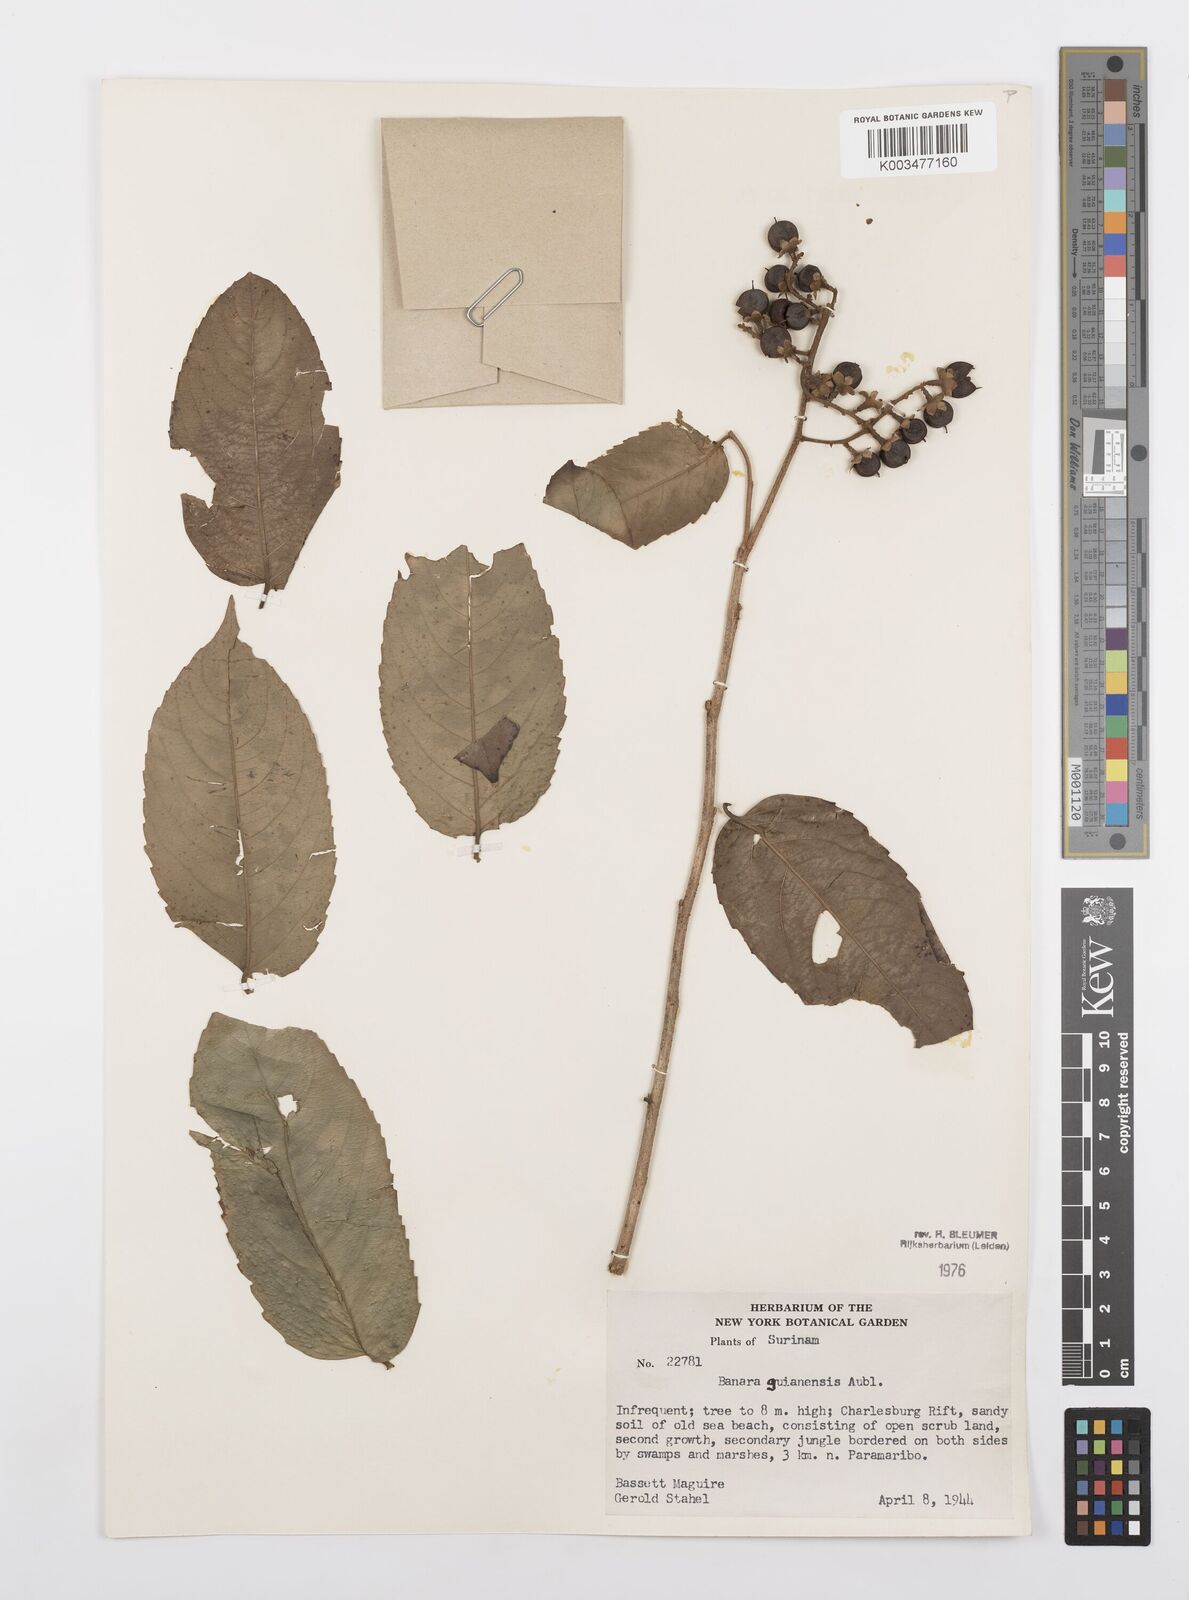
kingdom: Plantae
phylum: Tracheophyta
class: Magnoliopsida
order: Malpighiales
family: Salicaceae
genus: Banara
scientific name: Banara guianensis
